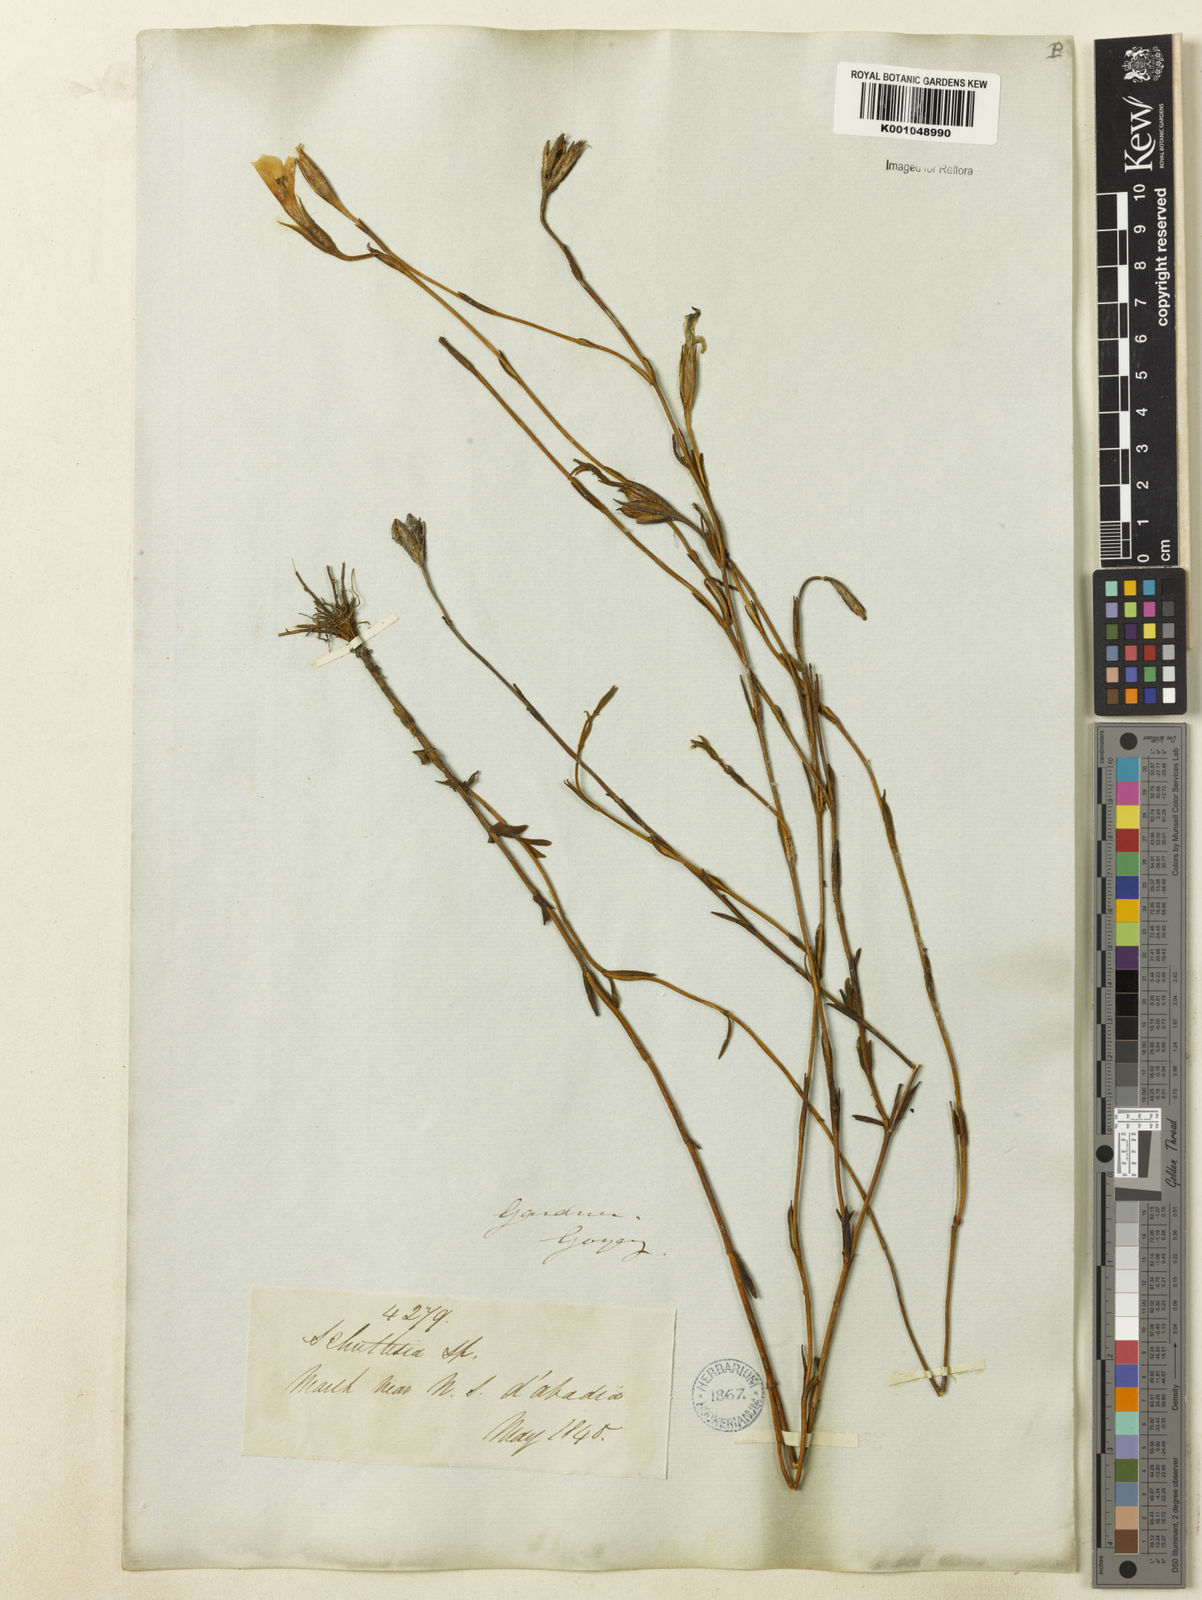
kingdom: Plantae
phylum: Tracheophyta
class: Magnoliopsida
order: Gentianales
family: Gentianaceae
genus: Schultesia
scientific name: Schultesia aptera
